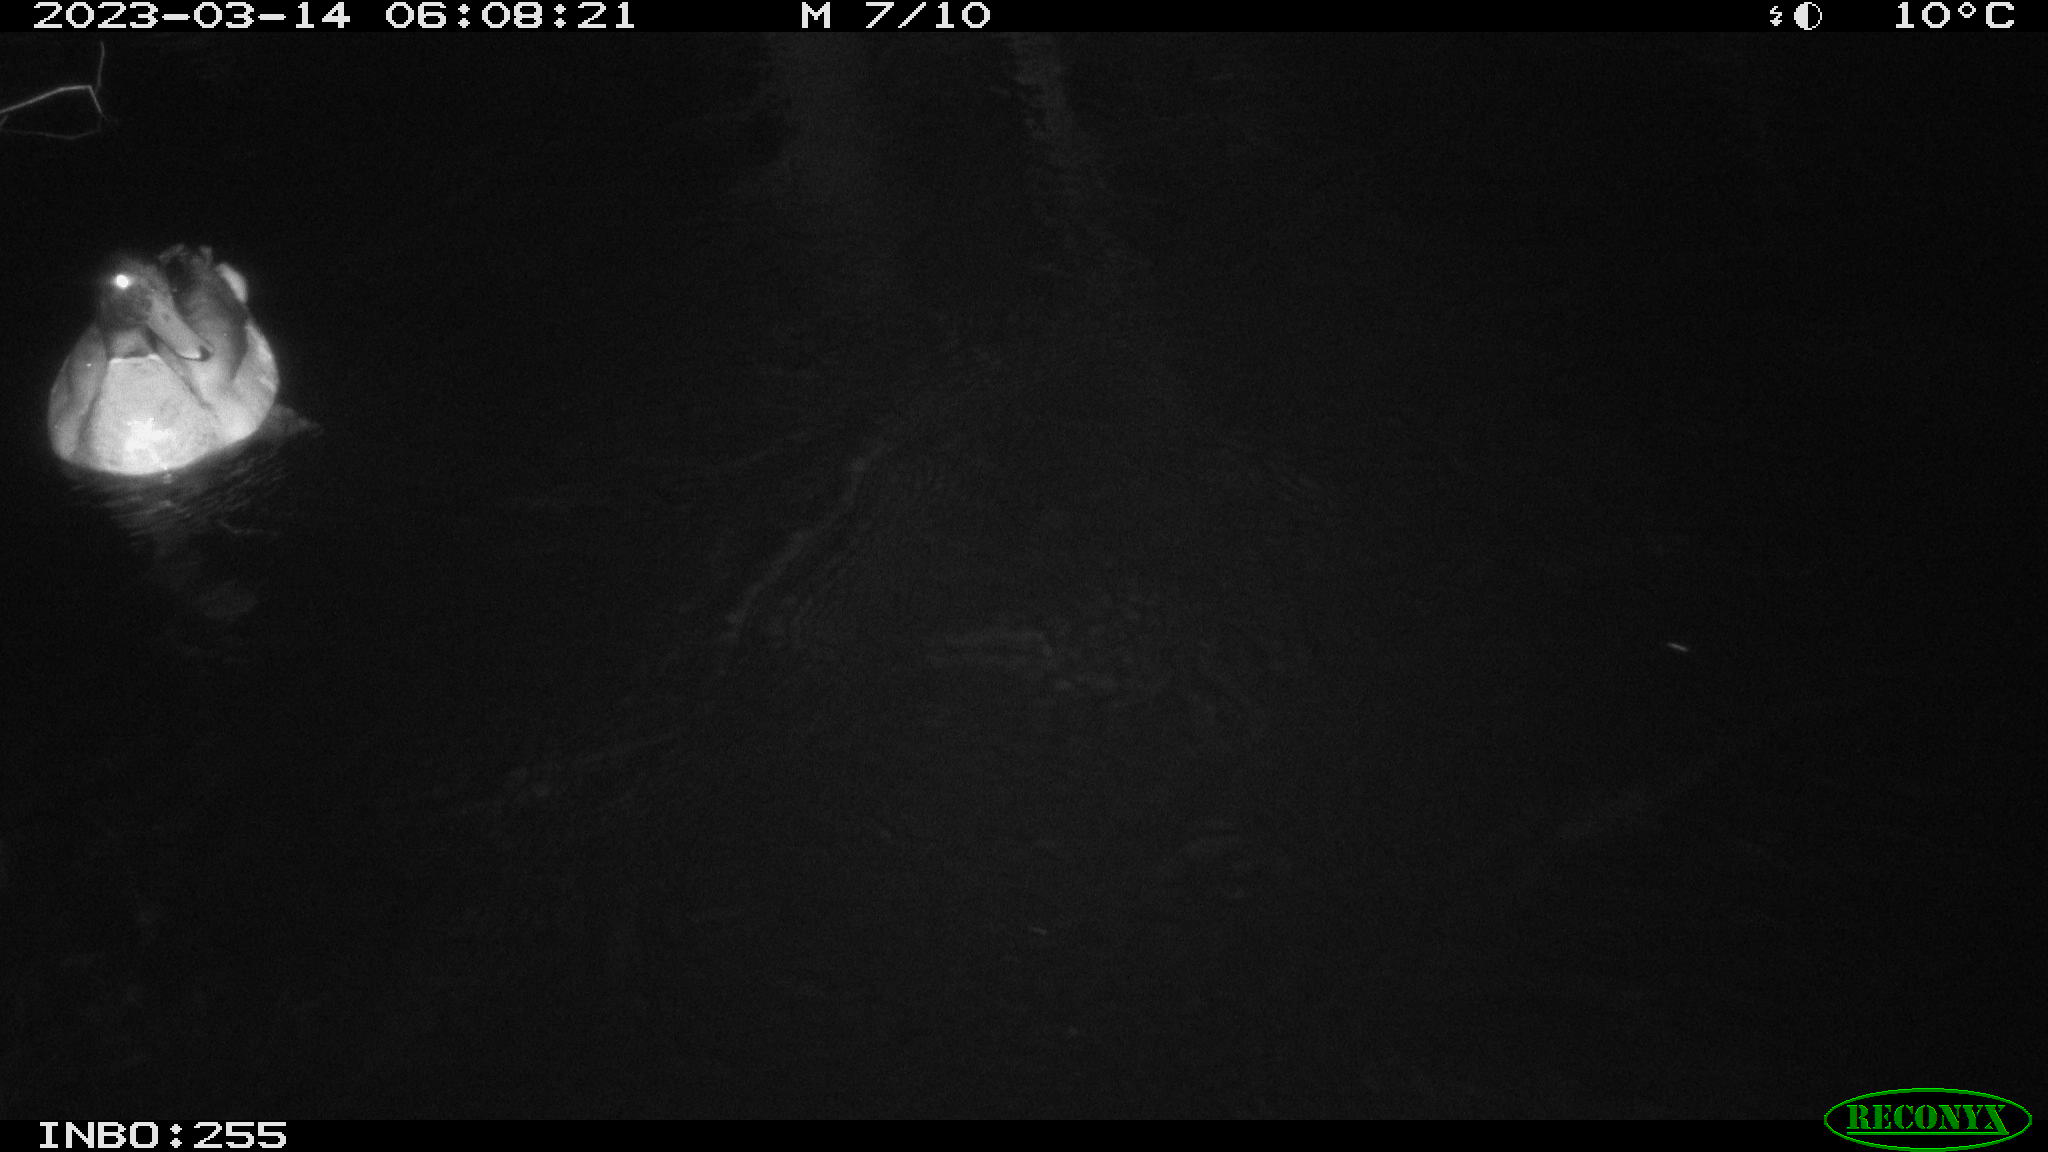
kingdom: Animalia
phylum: Chordata
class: Aves
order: Anseriformes
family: Anatidae
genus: Anas
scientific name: Anas
